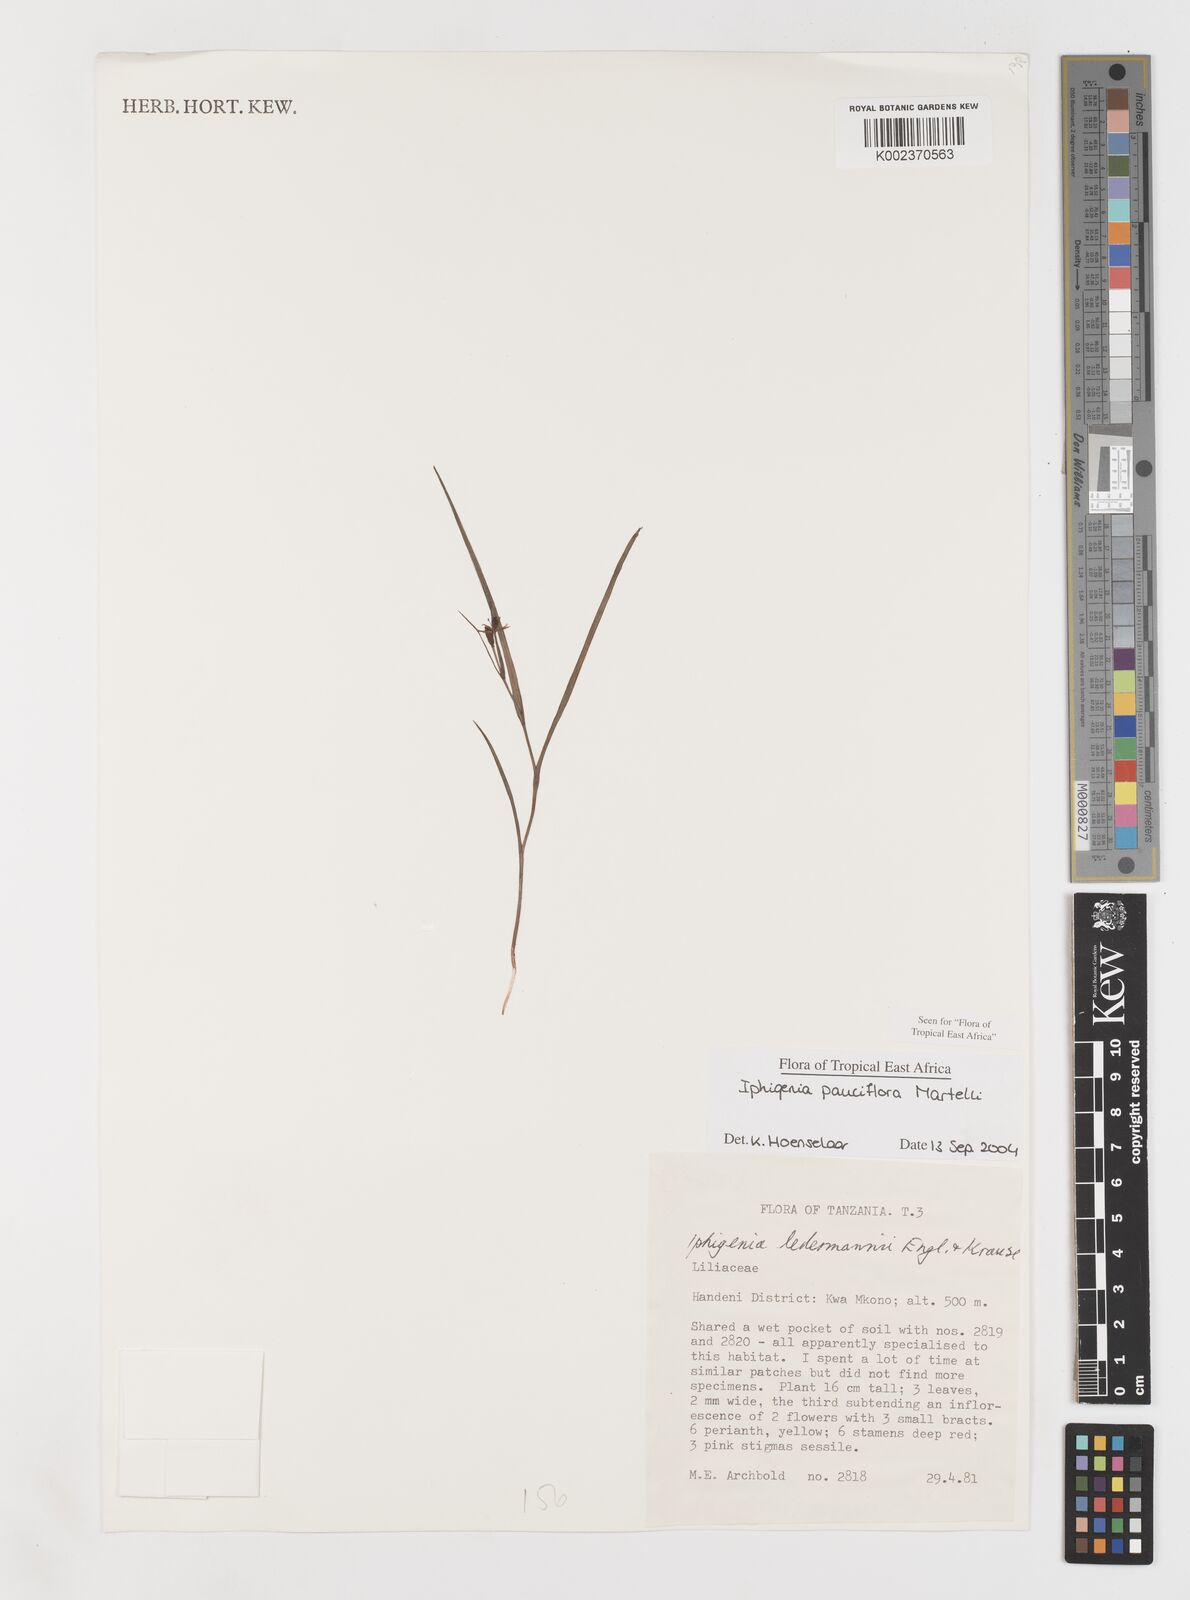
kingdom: Plantae
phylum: Tracheophyta
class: Liliopsida
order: Liliales
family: Colchicaceae
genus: Iphigenia
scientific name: Iphigenia pauciflora
